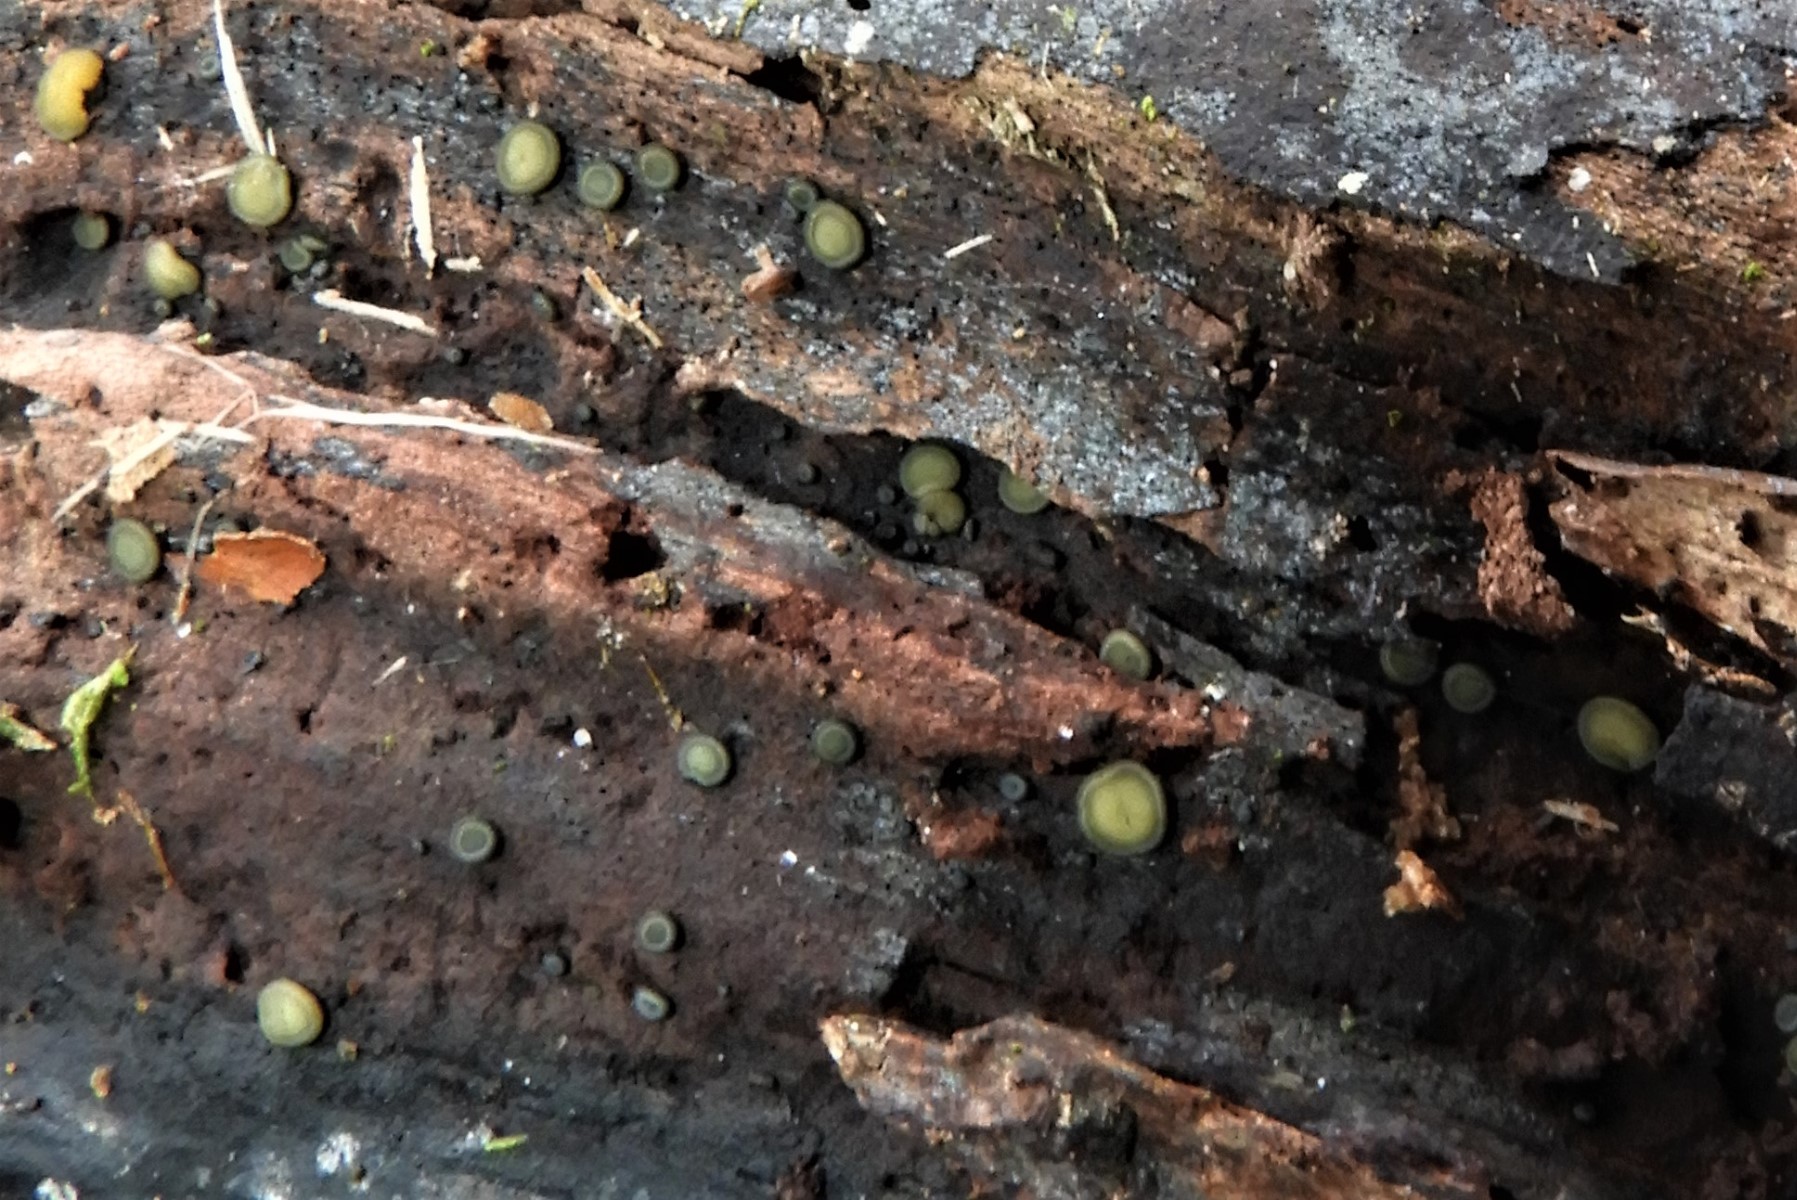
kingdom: Fungi
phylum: Ascomycota
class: Leotiomycetes
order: Helotiales
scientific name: Helotiales
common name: stilkskiveordenen
